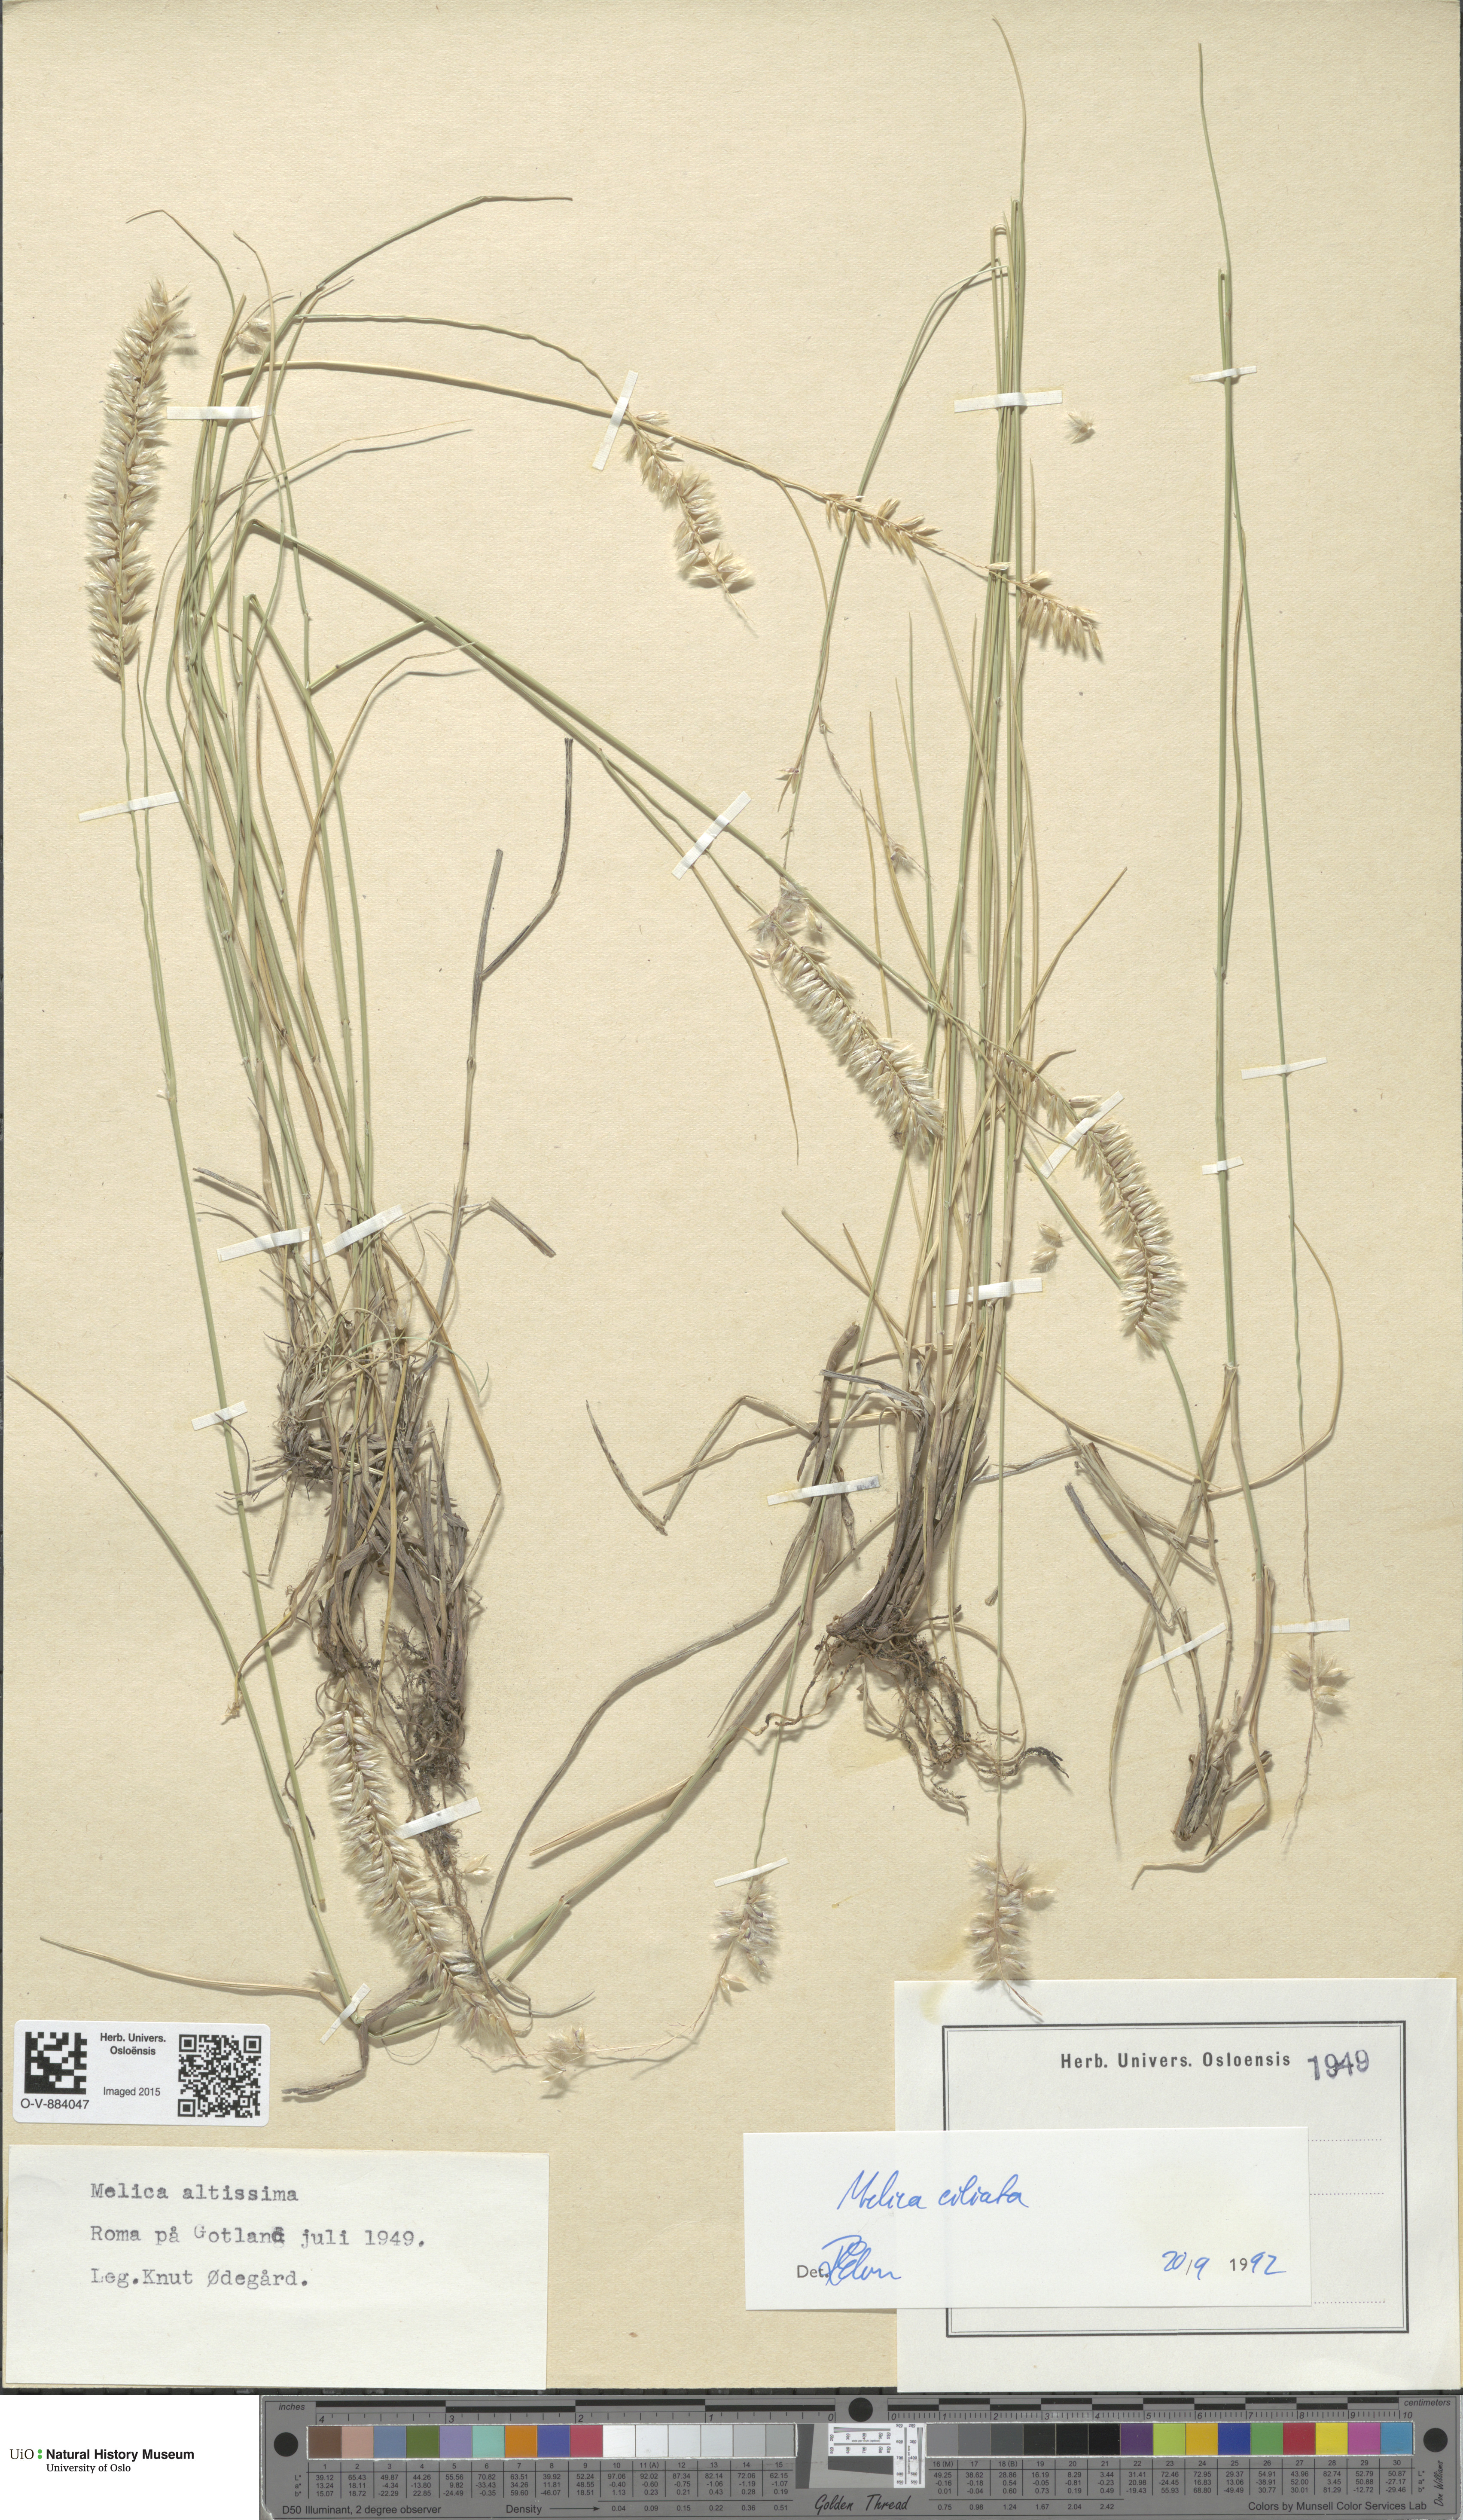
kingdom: Plantae
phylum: Tracheophyta
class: Liliopsida
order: Poales
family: Poaceae
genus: Melica
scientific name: Melica ciliata
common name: Hairy melicgrass
